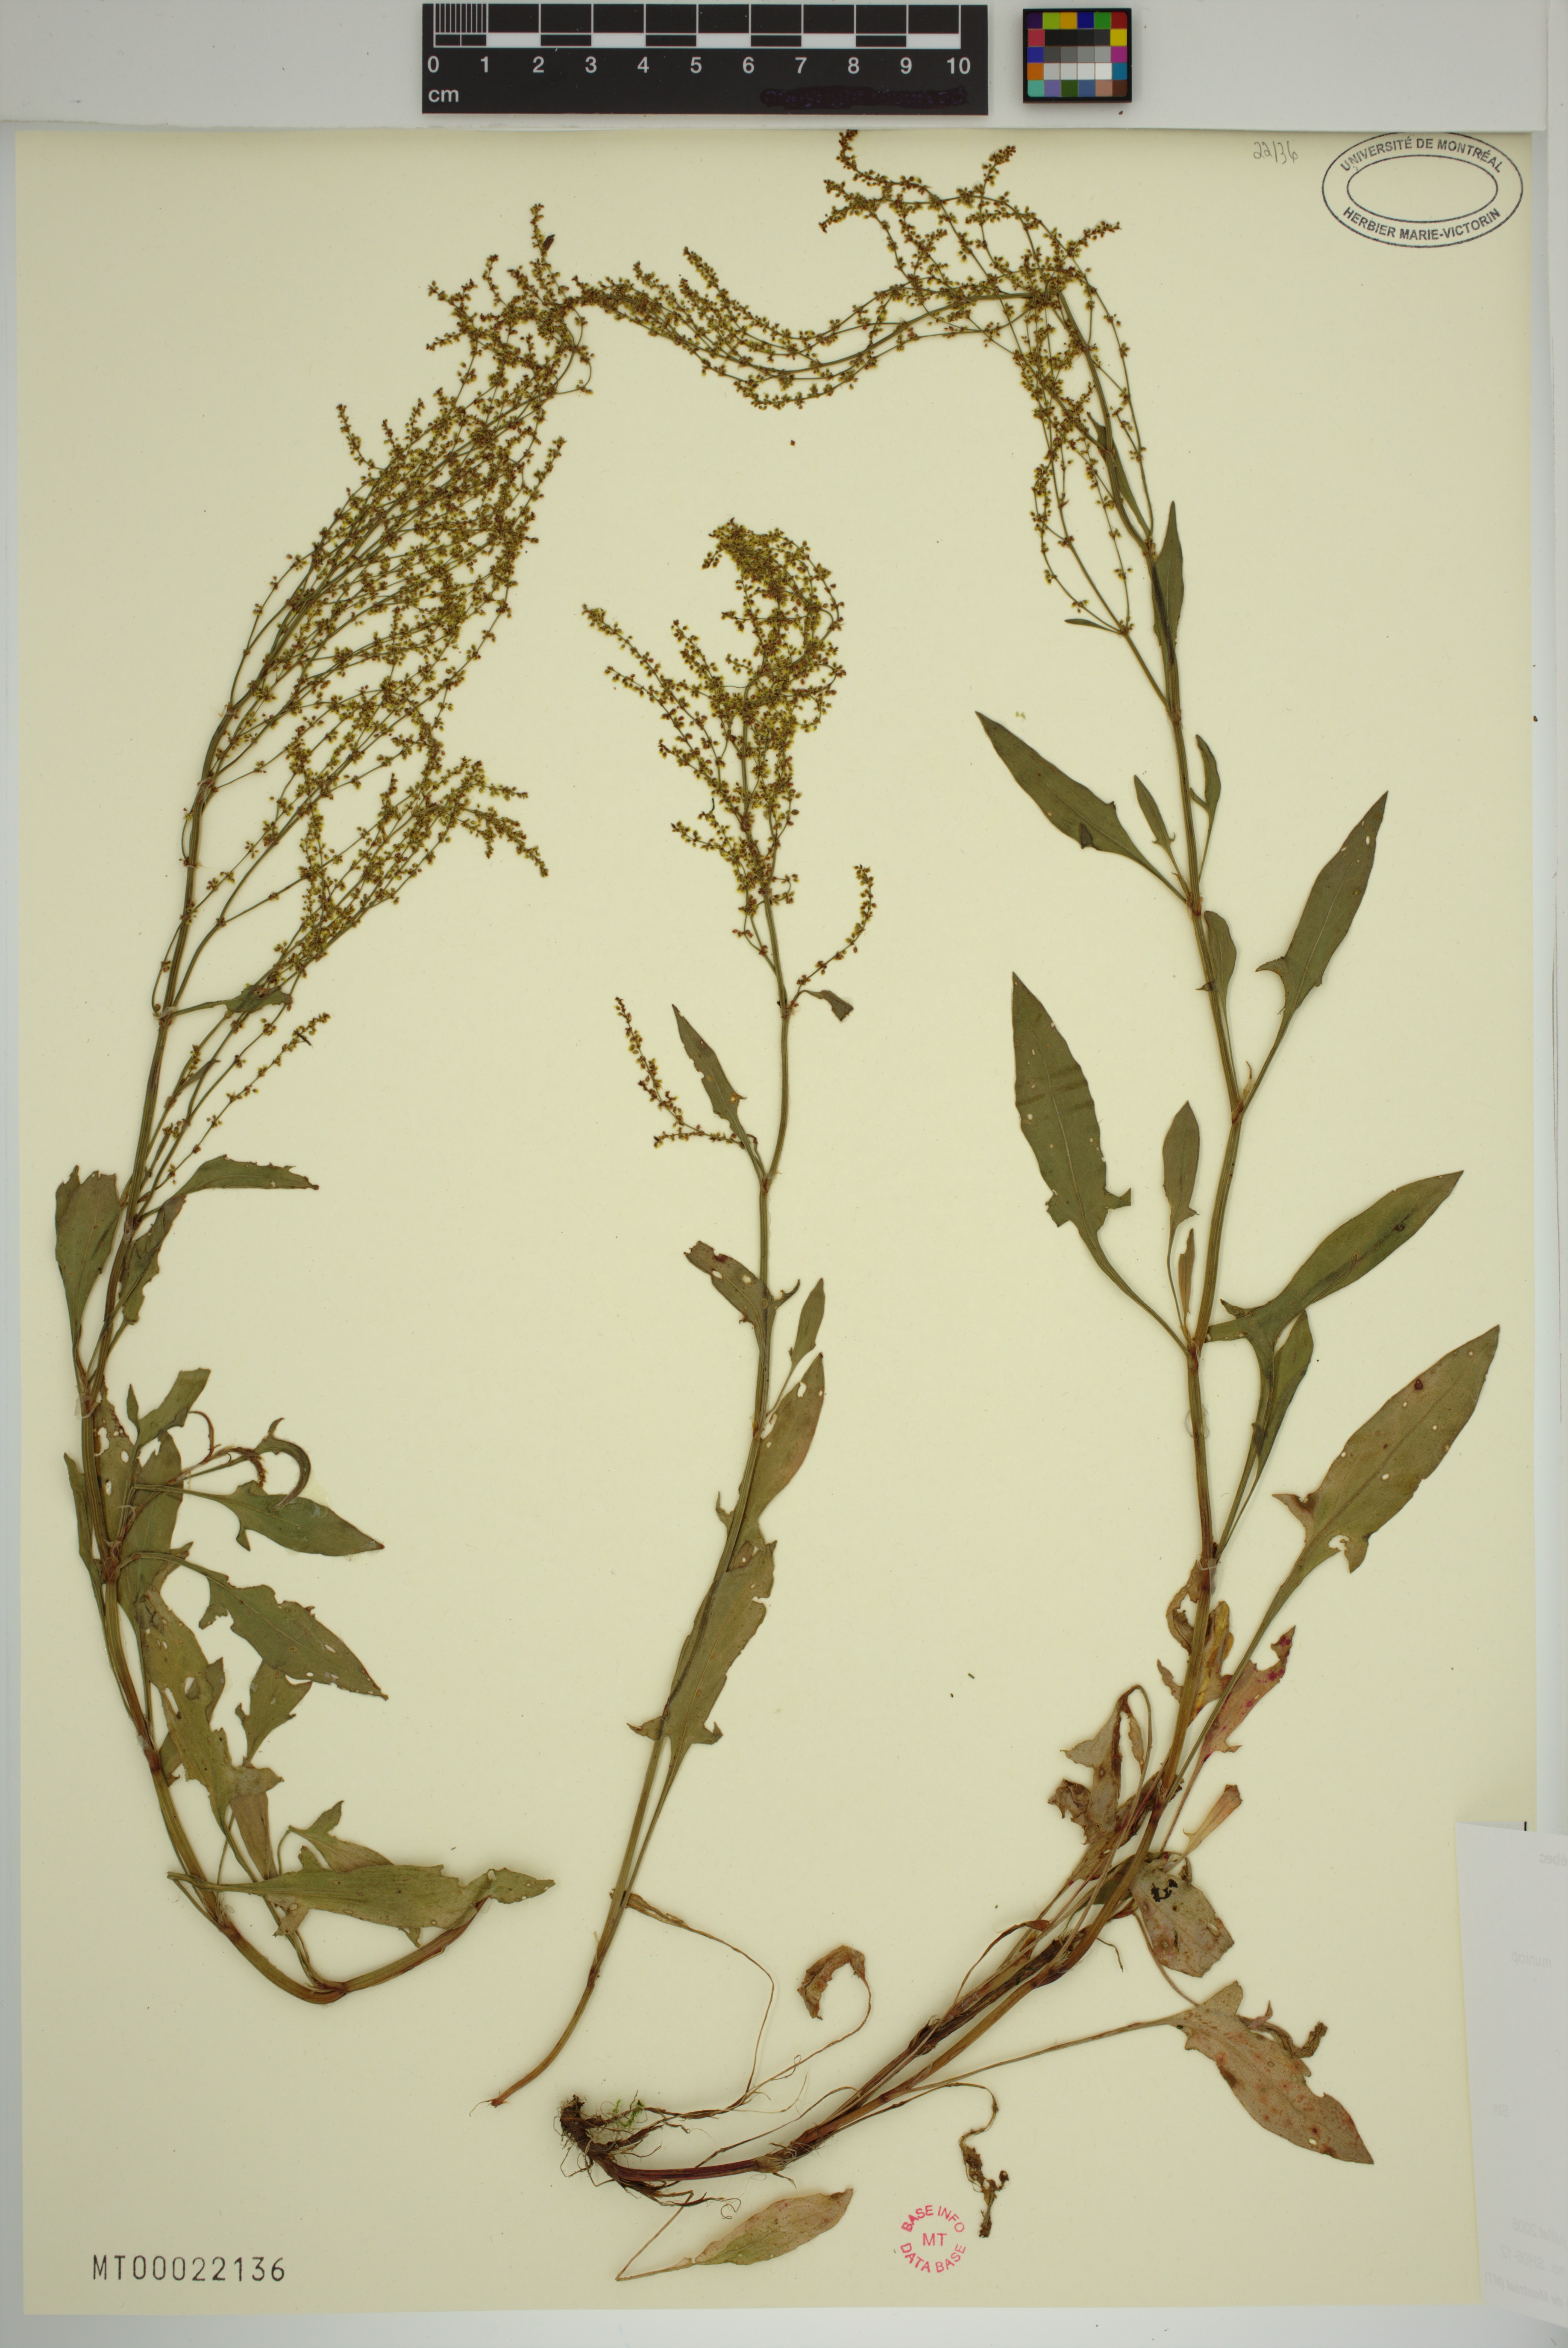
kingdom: Plantae
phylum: Tracheophyta
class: Magnoliopsida
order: Caryophyllales
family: Polygonaceae
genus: Rumex
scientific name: Rumex acetosella
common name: Common sheep sorrel
